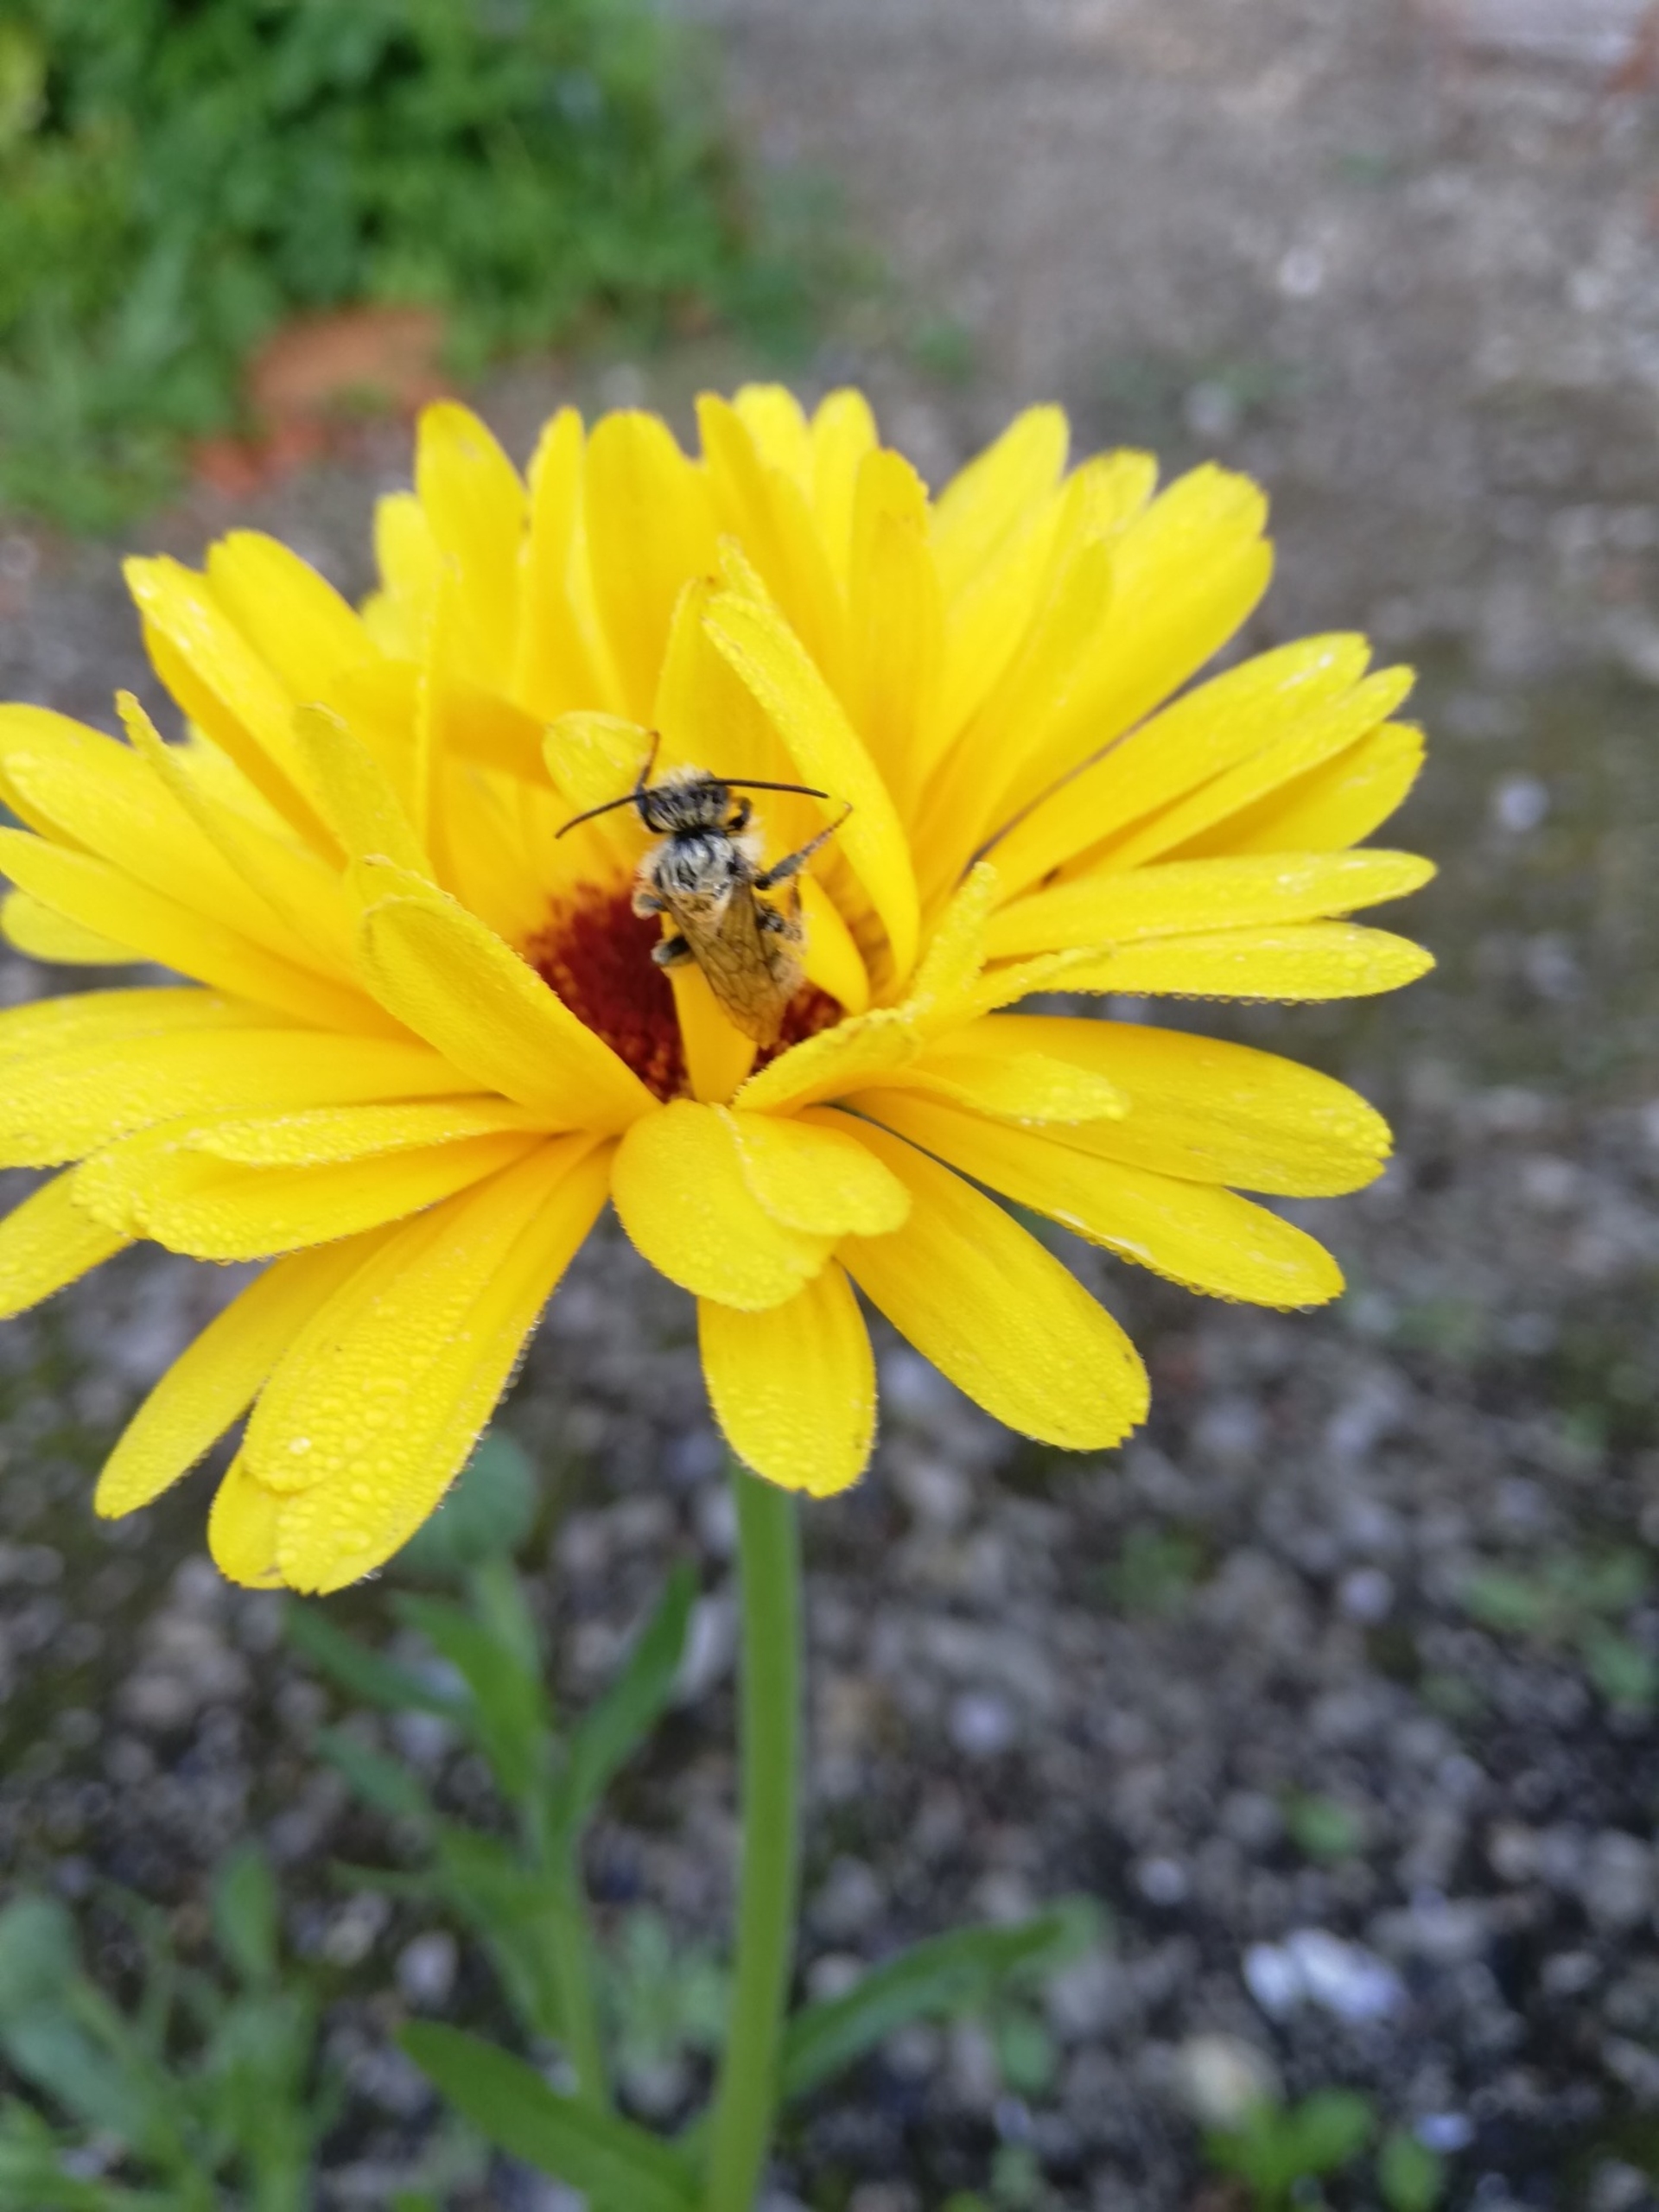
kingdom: Animalia
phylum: Arthropoda
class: Insecta
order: Hymenoptera
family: Crabronidae
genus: Crossocerus
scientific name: Crossocerus
